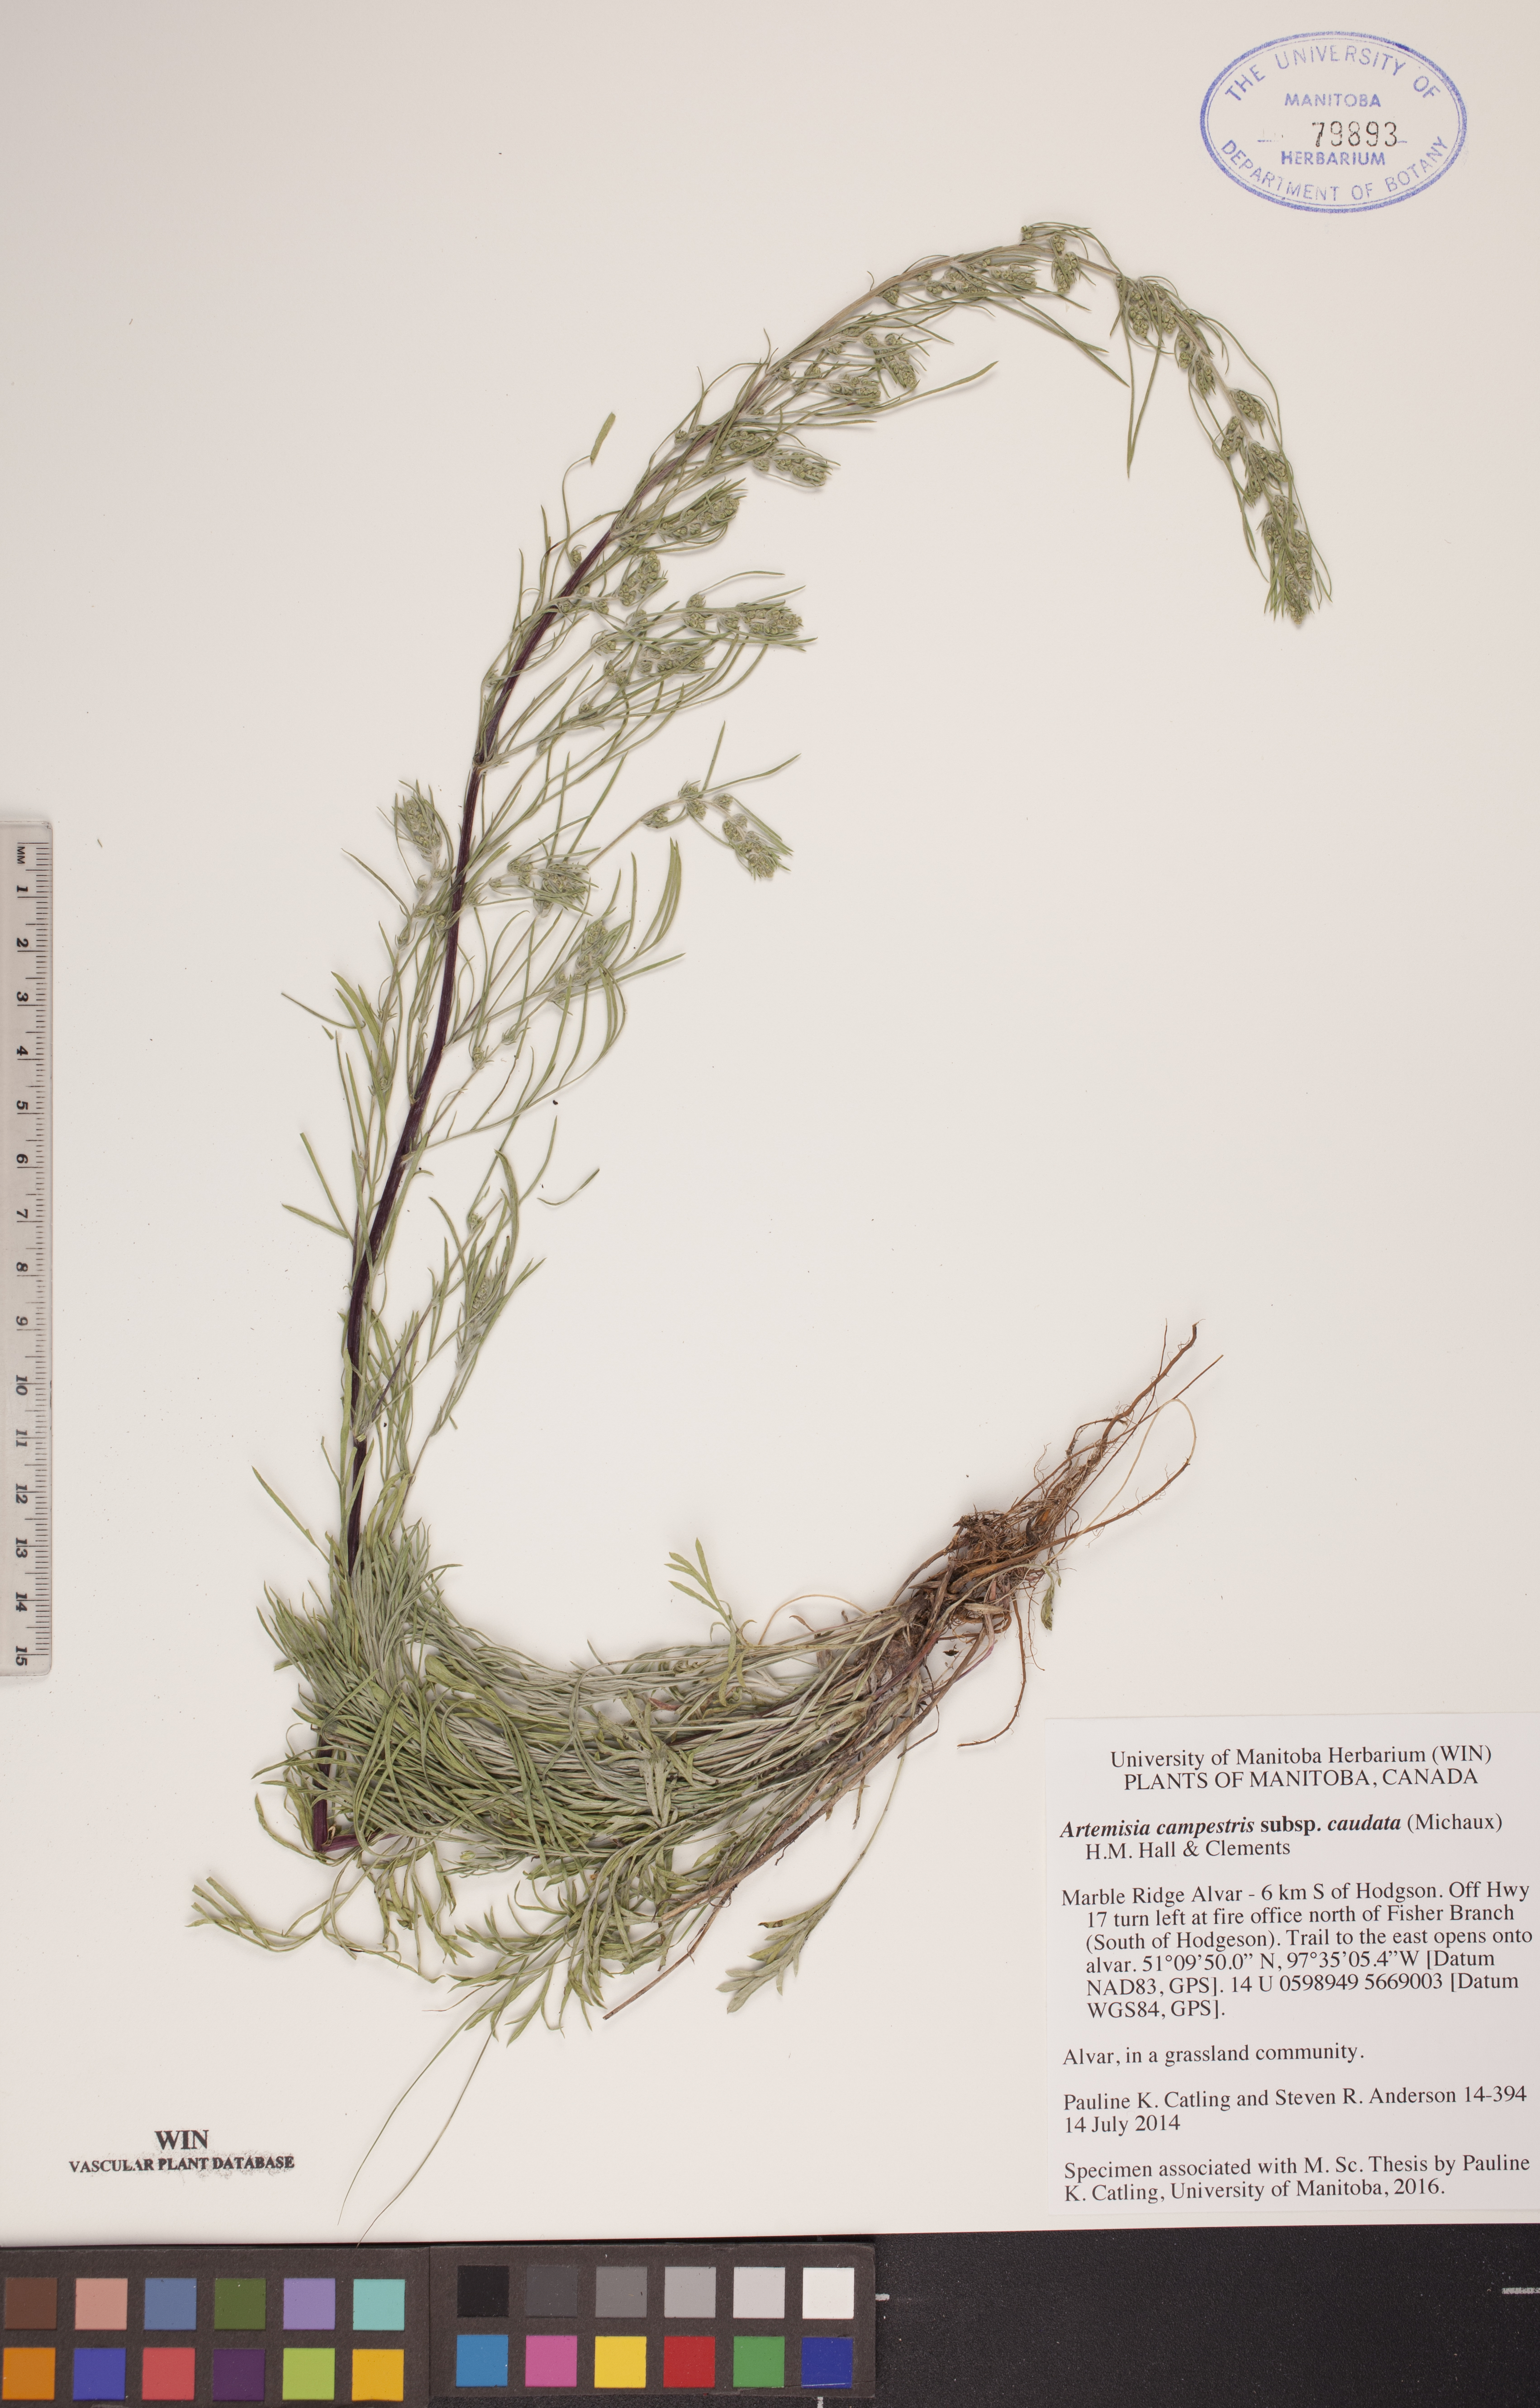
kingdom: Plantae
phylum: Tracheophyta
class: Magnoliopsida
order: Asterales
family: Asteraceae
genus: Artemisia
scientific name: Artemisia campestris
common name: Field wormwood
